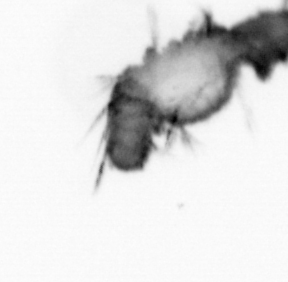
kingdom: Animalia
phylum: Annelida
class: Polychaeta
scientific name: Polychaeta
